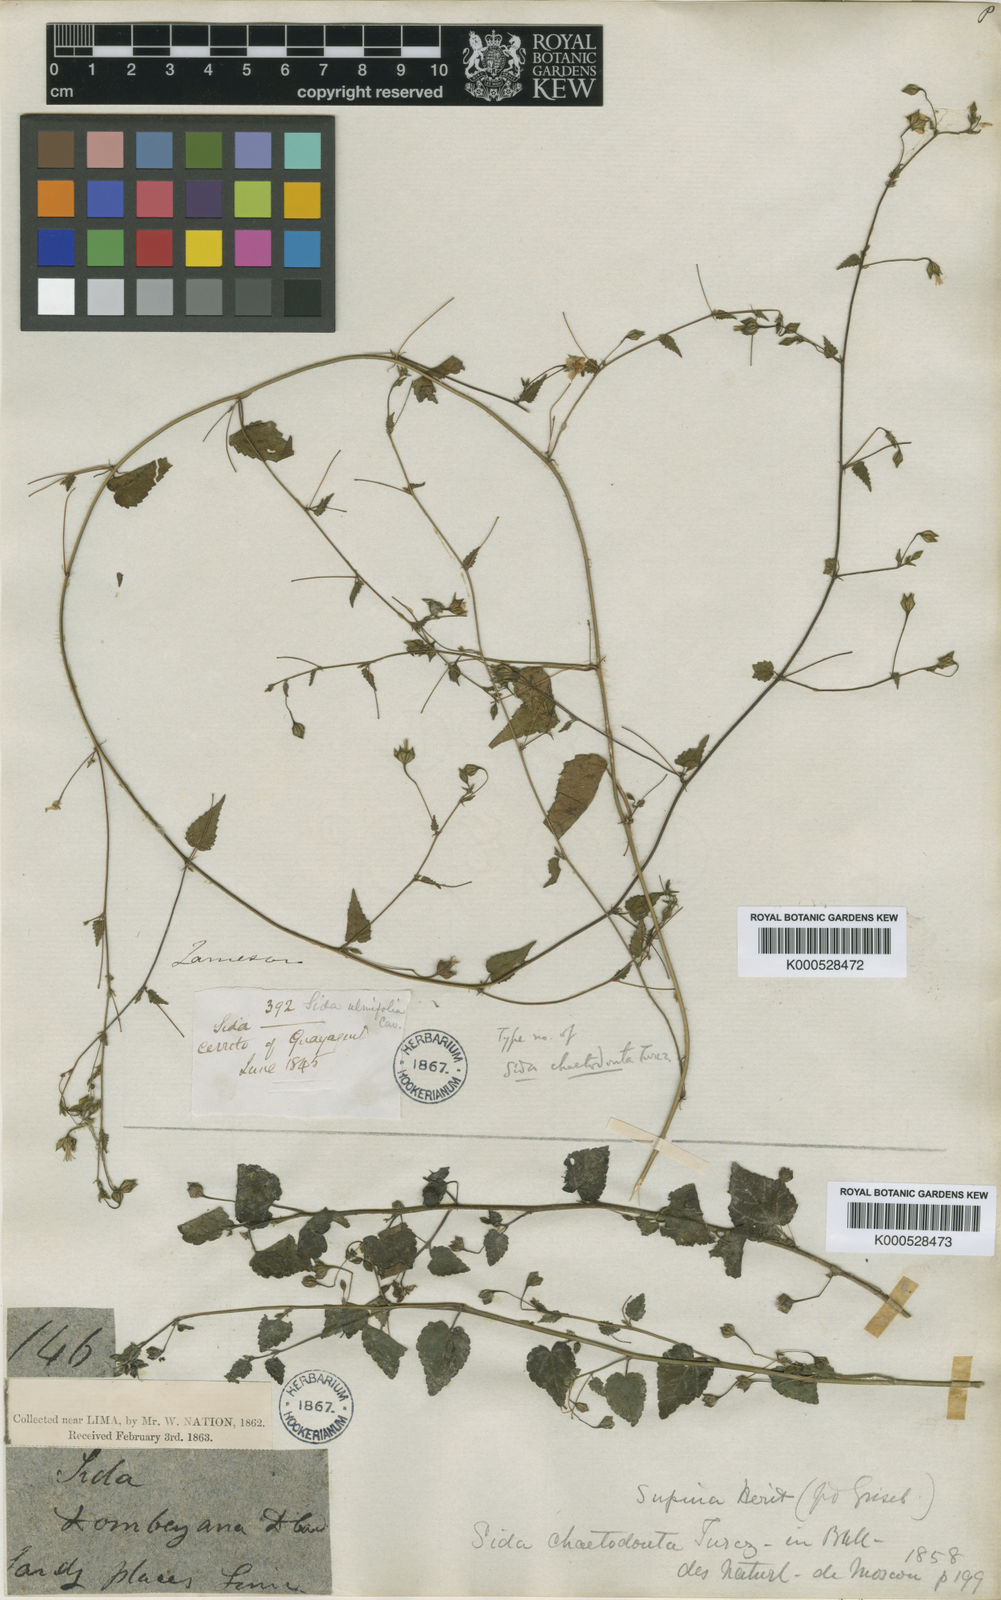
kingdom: Plantae
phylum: Tracheophyta
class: Magnoliopsida
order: Malvales
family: Malvaceae
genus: Sida
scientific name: Sida
